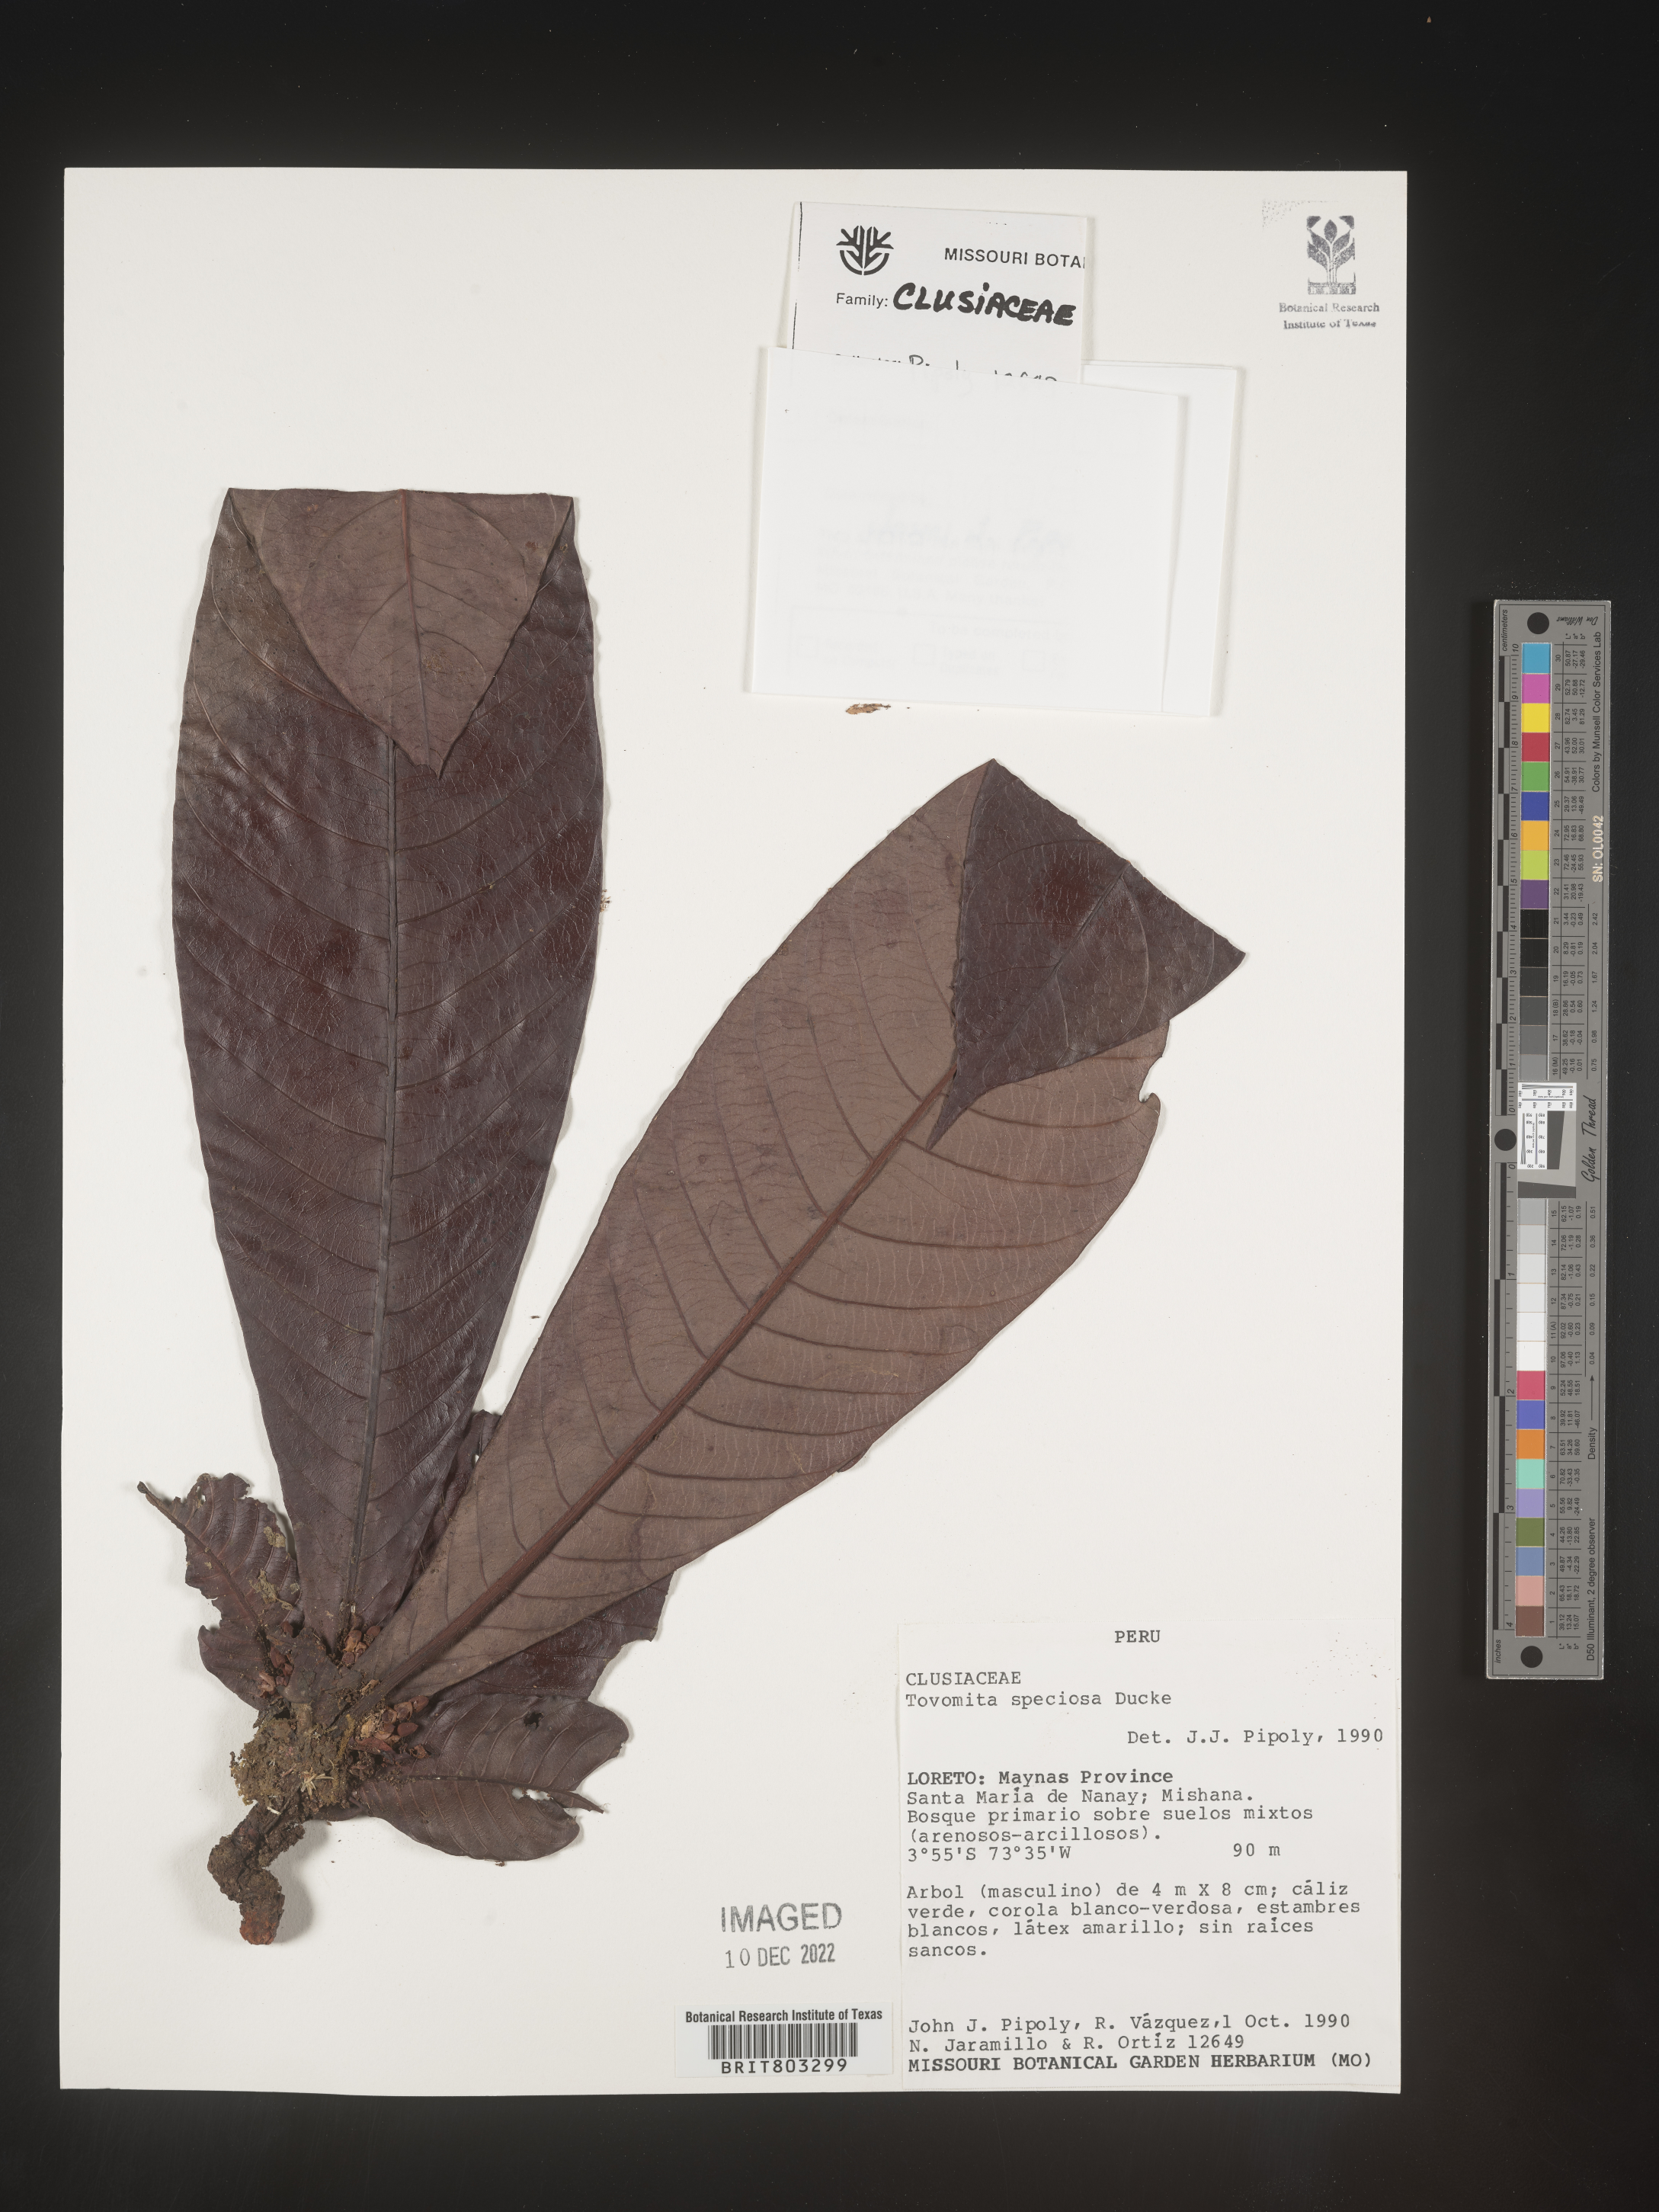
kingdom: Plantae
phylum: Tracheophyta
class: Magnoliopsida
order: Malpighiales
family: Clusiaceae
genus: Tovomita
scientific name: Tovomita
